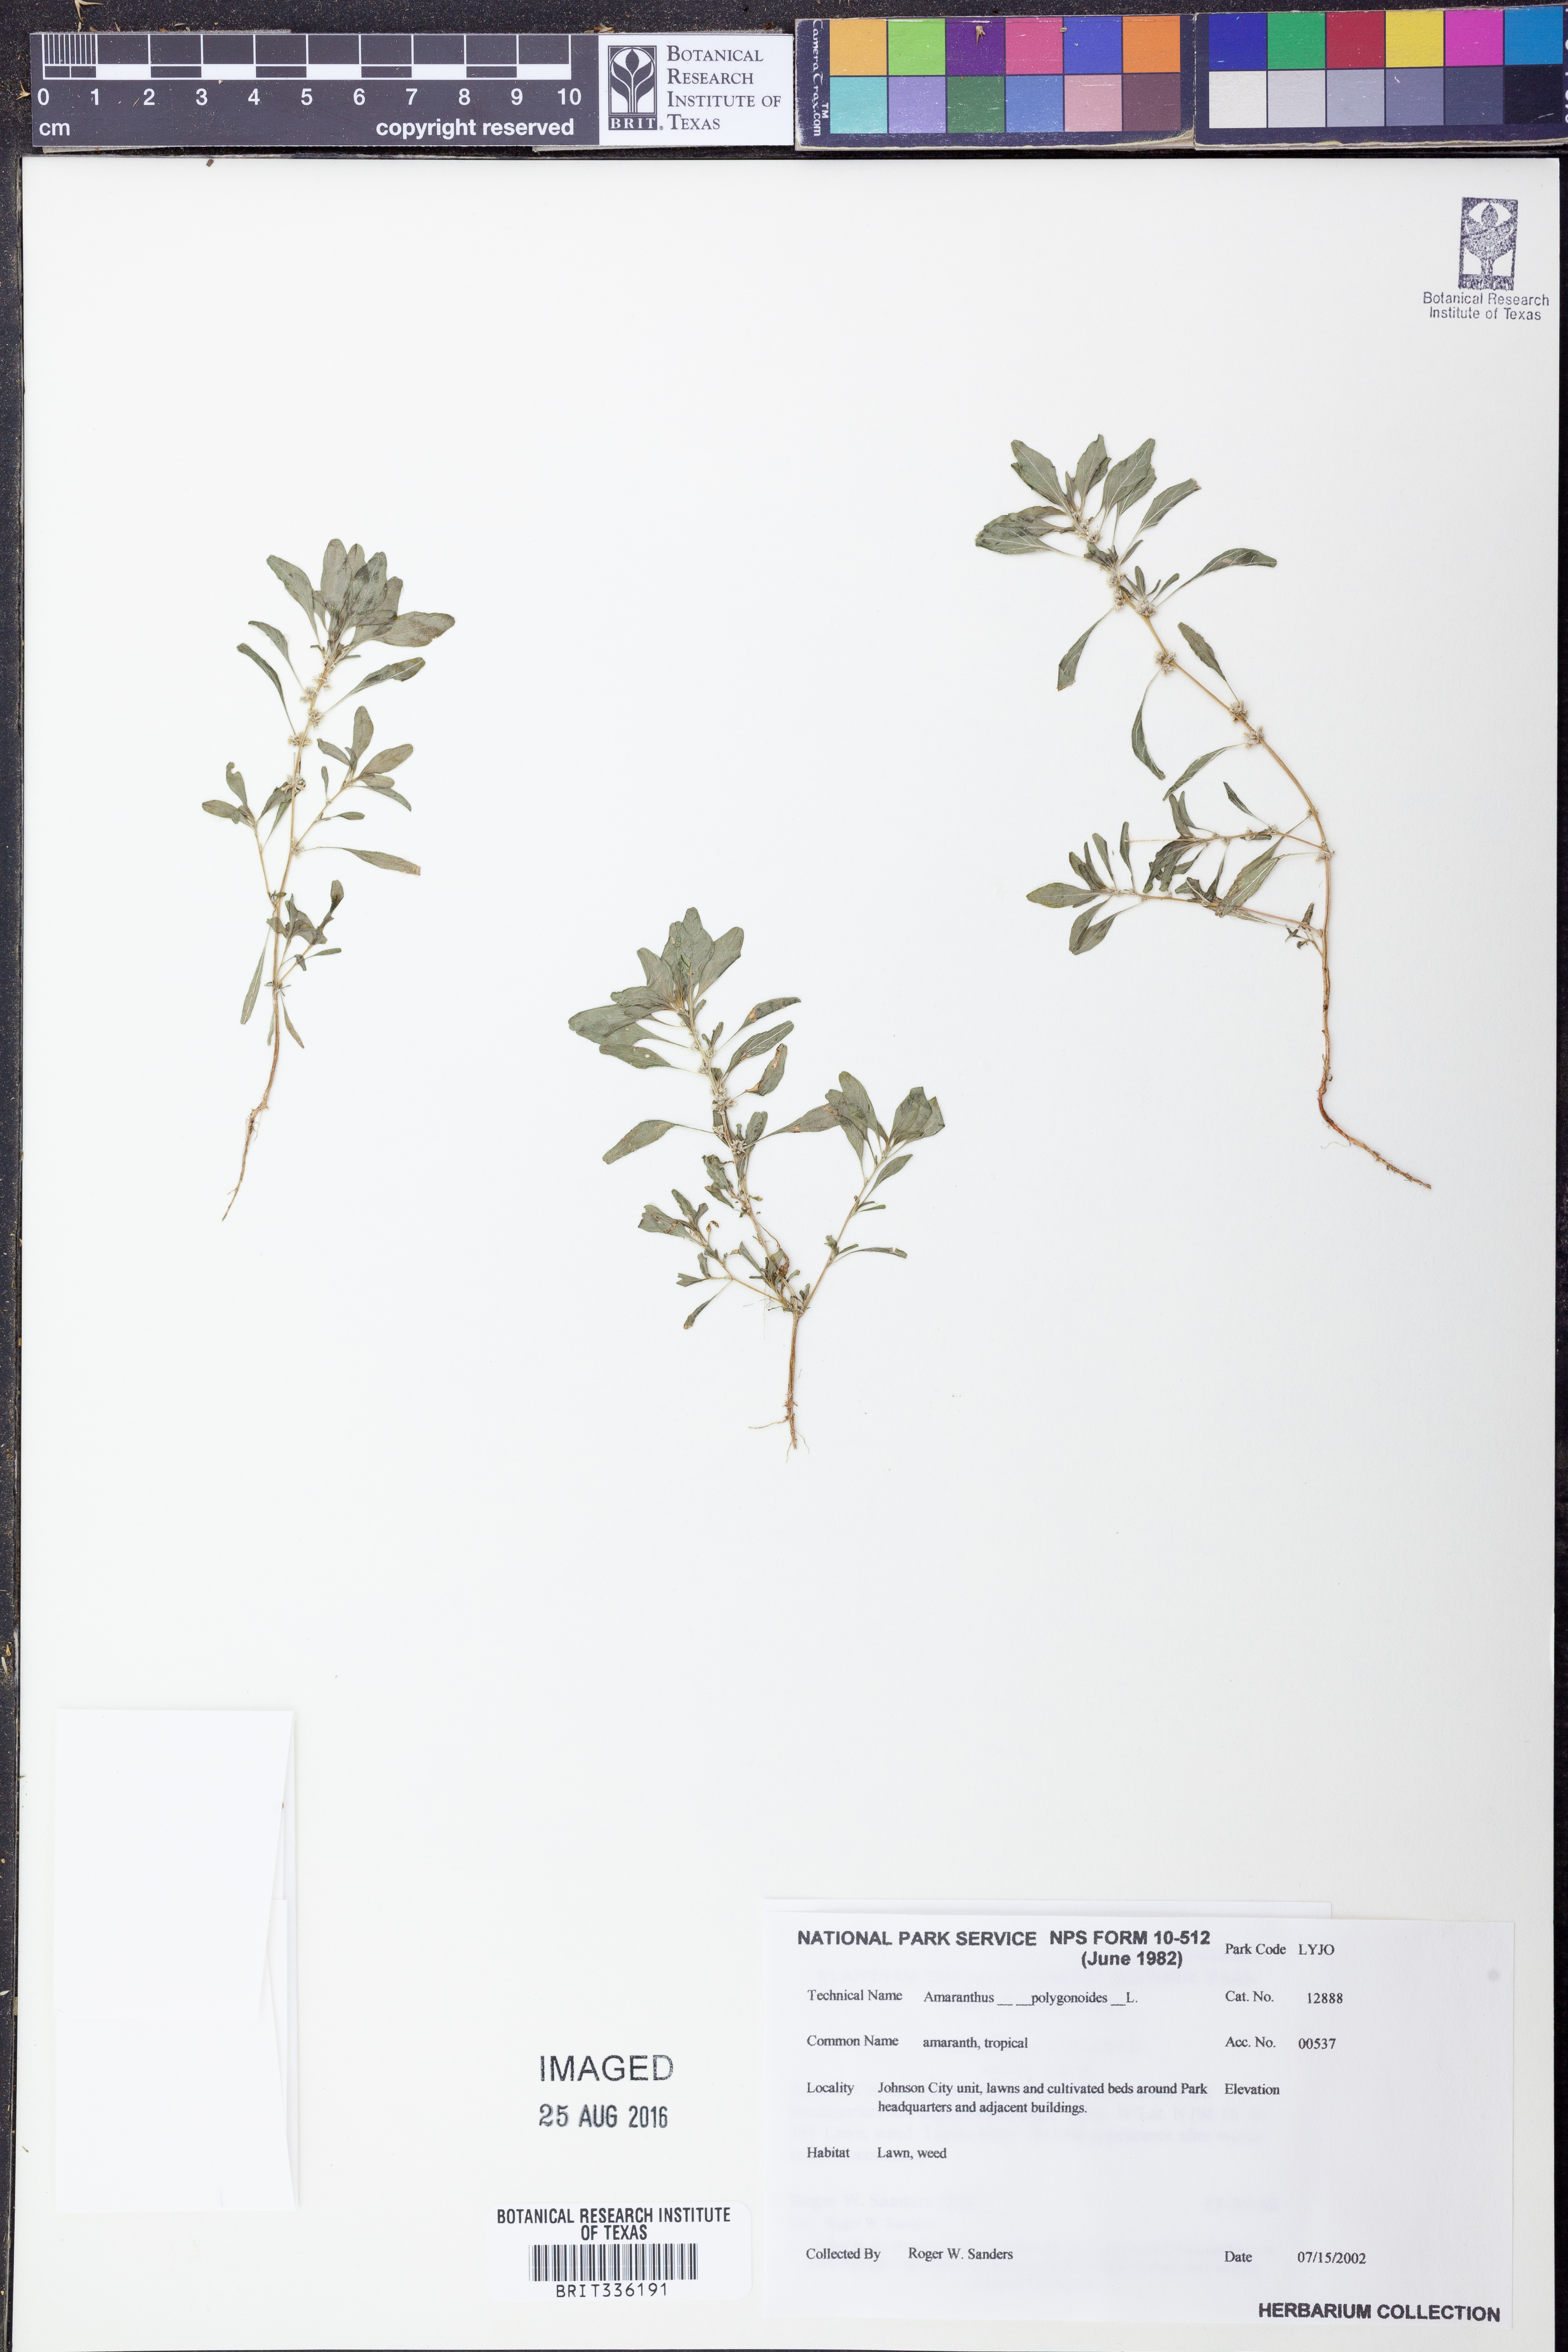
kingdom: Plantae
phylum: Tracheophyta
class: Magnoliopsida
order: Caryophyllales
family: Amaranthaceae
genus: Amaranthus
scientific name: Amaranthus polygonoides
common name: Tropical amaranth
